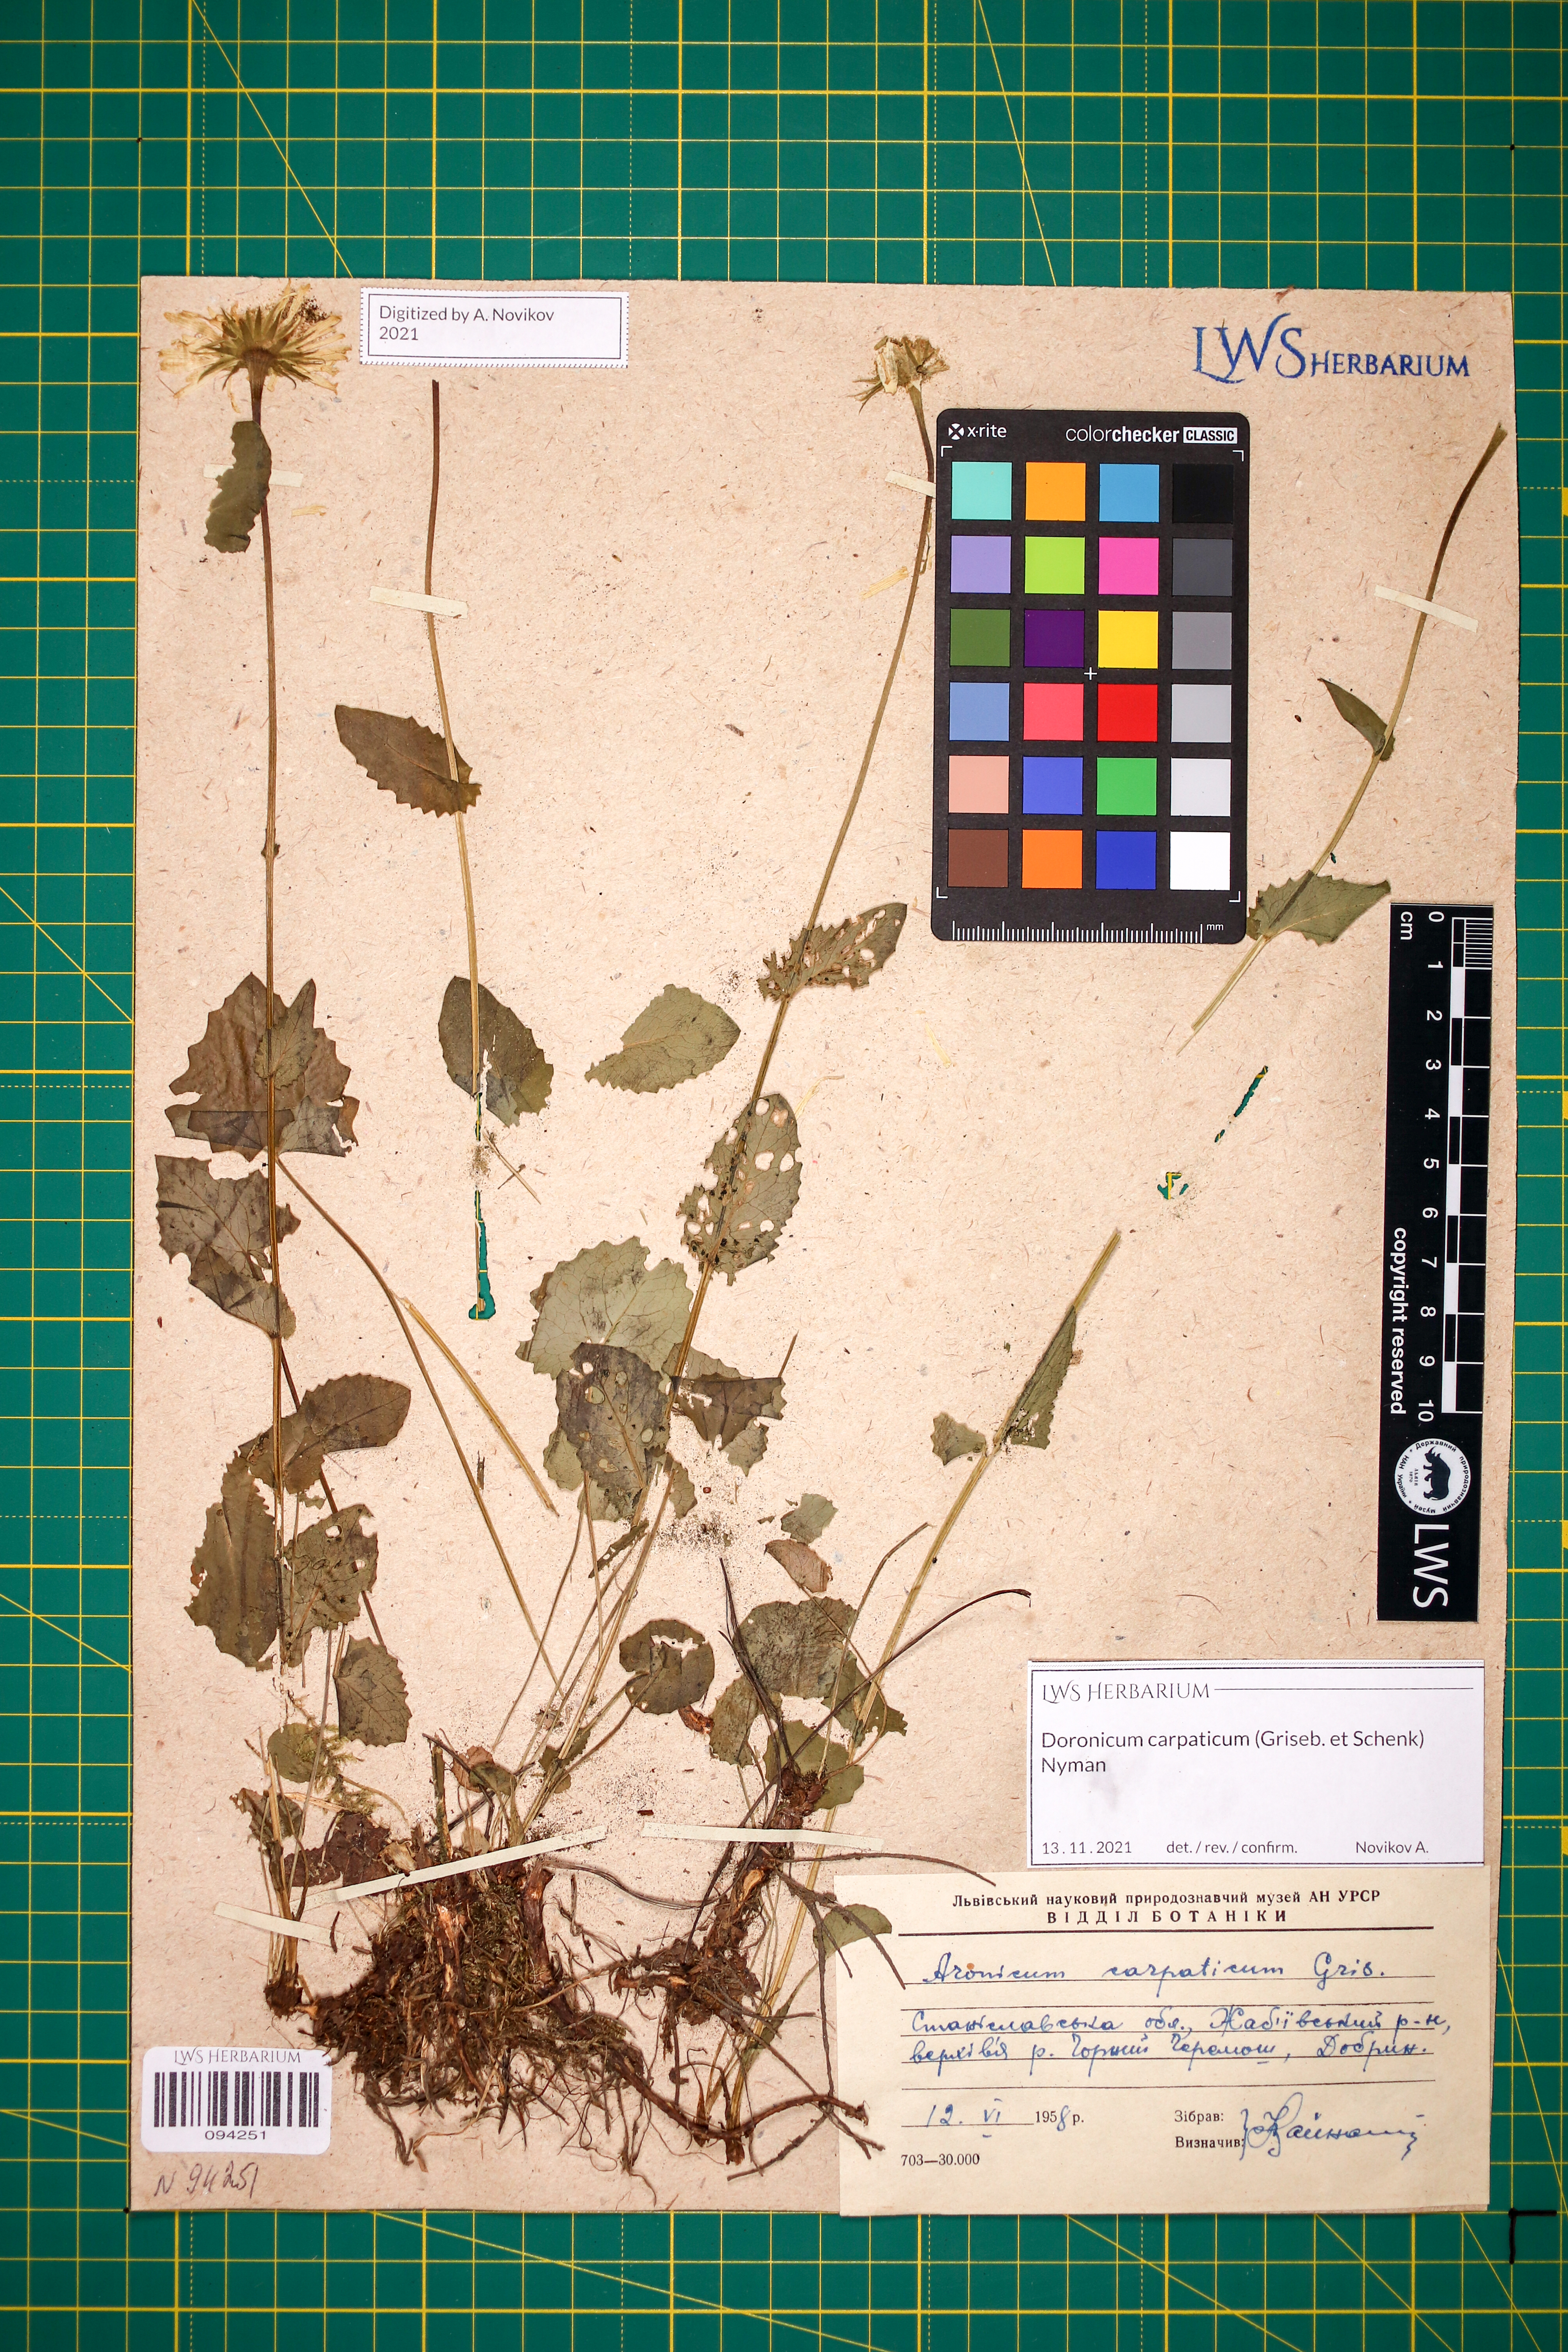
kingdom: Plantae
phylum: Tracheophyta
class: Magnoliopsida
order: Asterales
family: Asteraceae
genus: Doronicum
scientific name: Doronicum carpaticum
